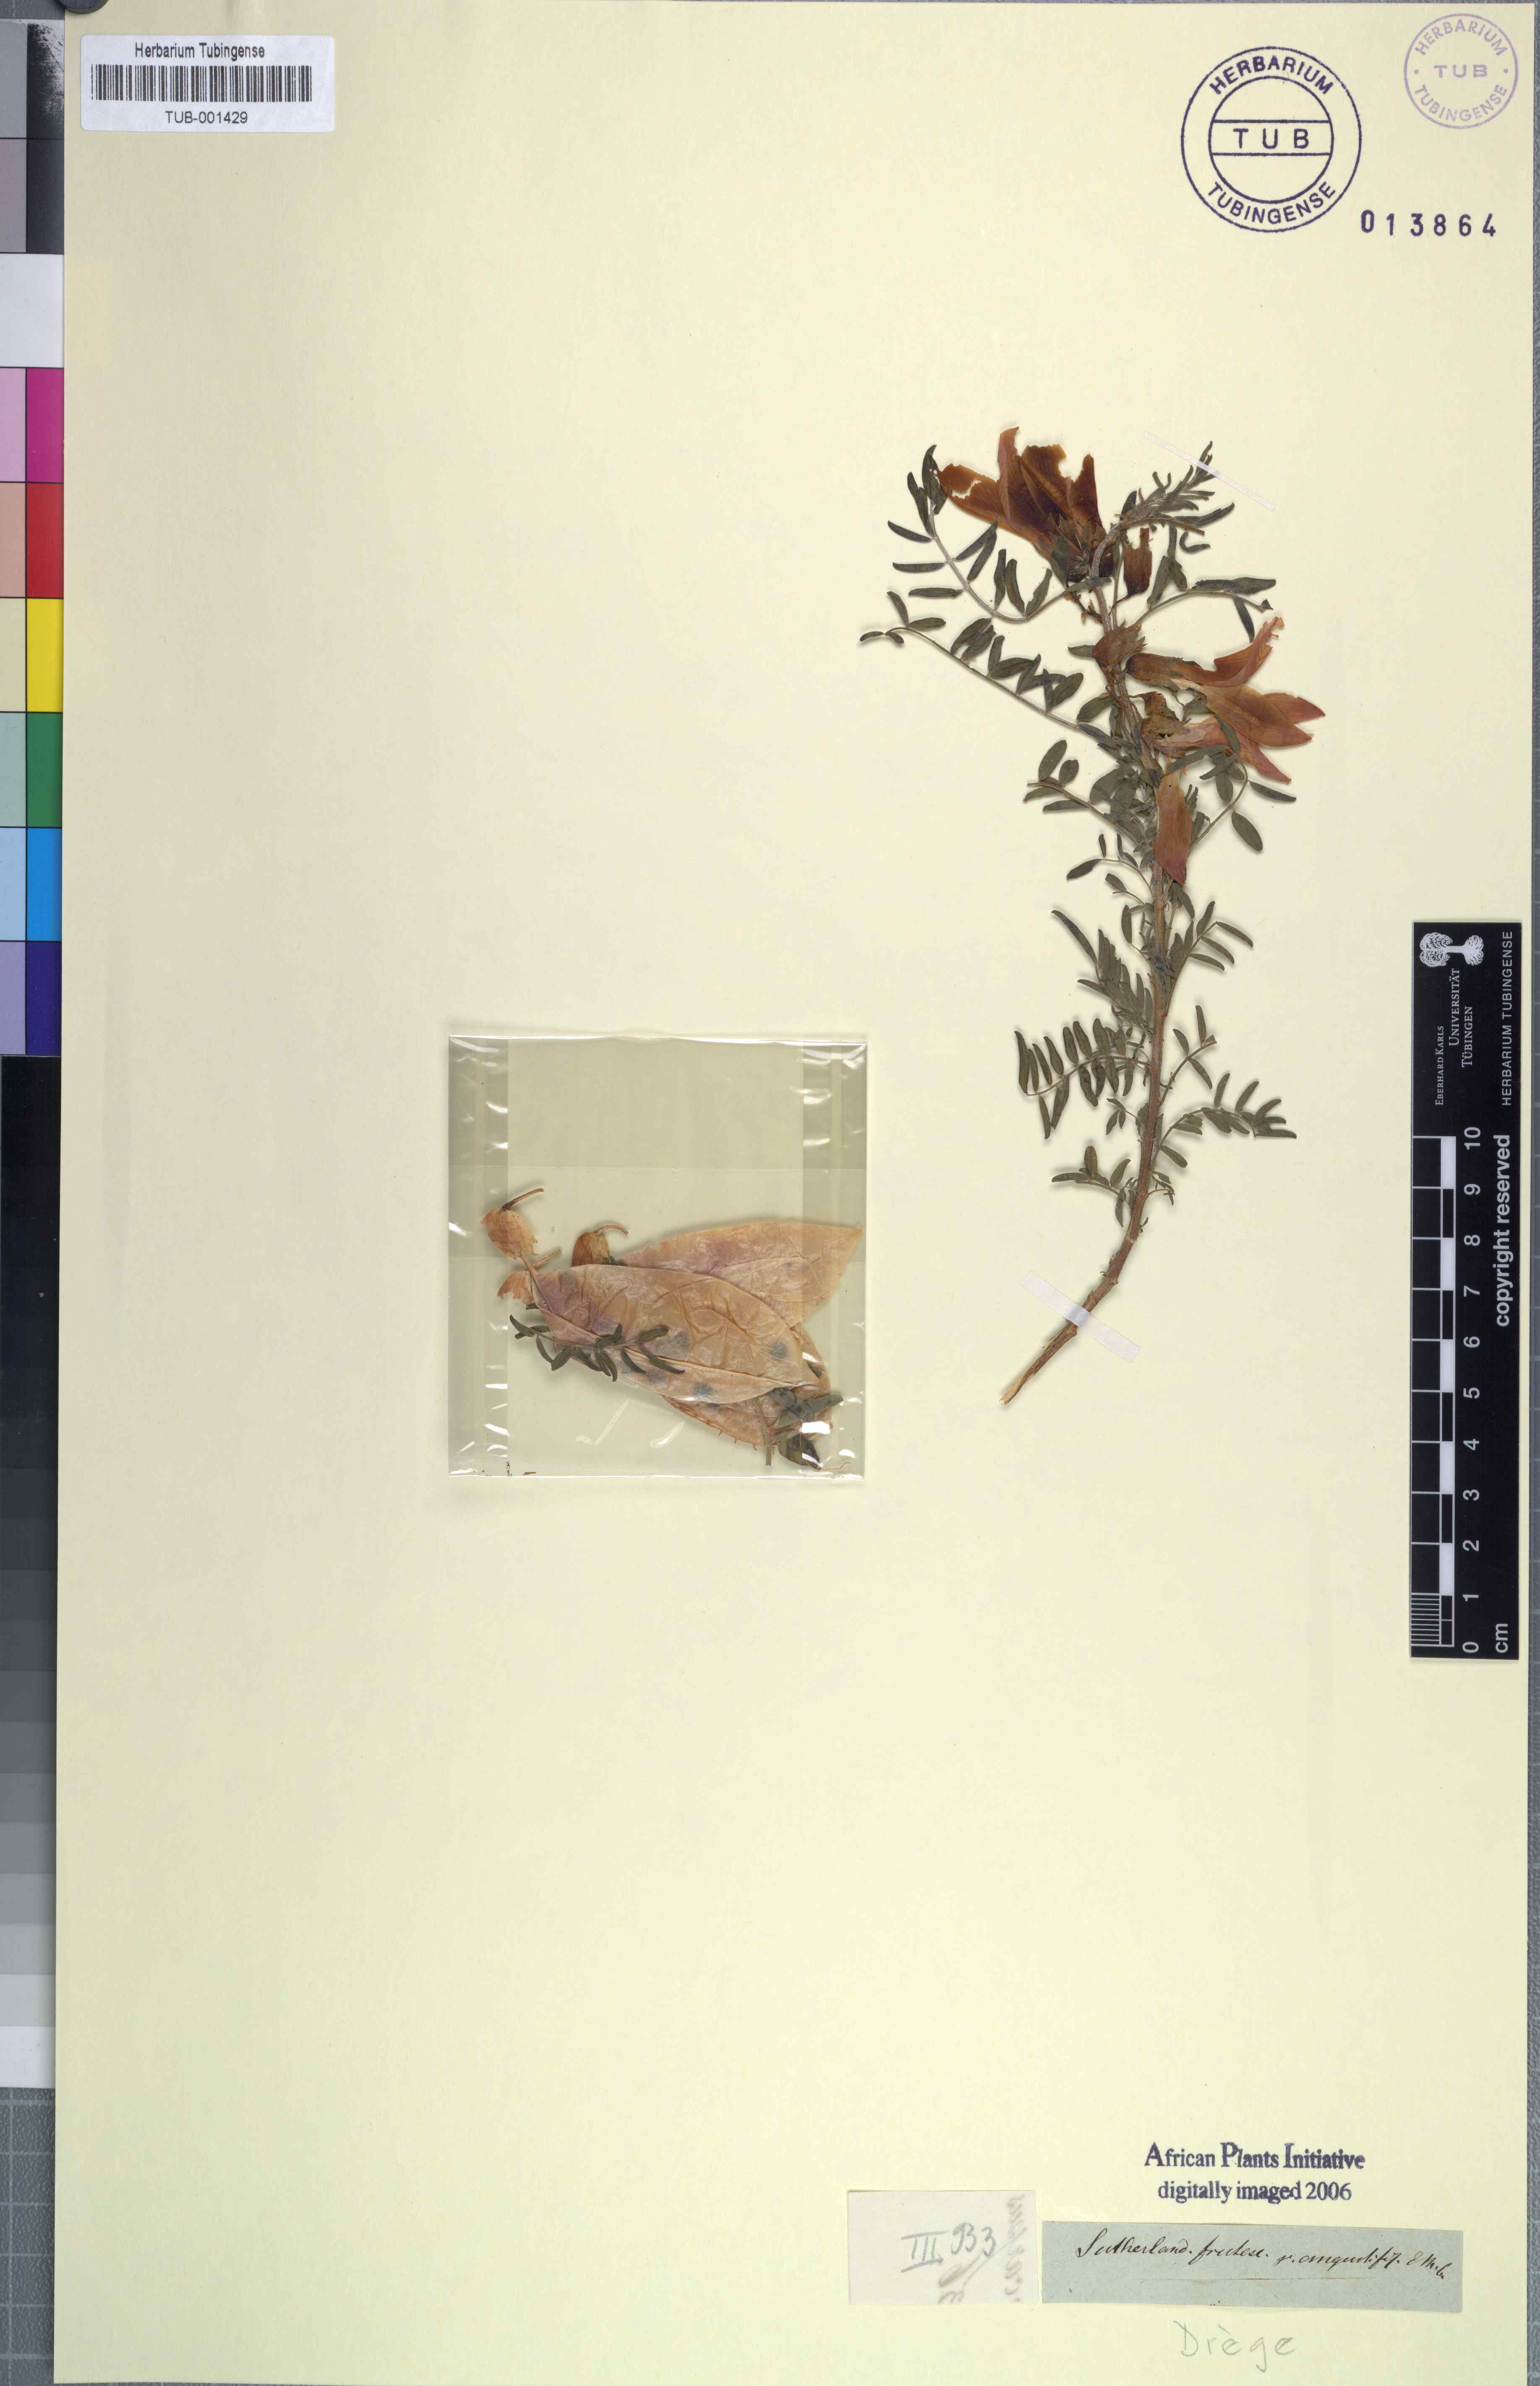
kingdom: Plantae
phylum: Tracheophyta
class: Magnoliopsida
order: Fabales
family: Fabaceae
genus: Lessertia
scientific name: Lessertia frutescens
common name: Balloon-pea
